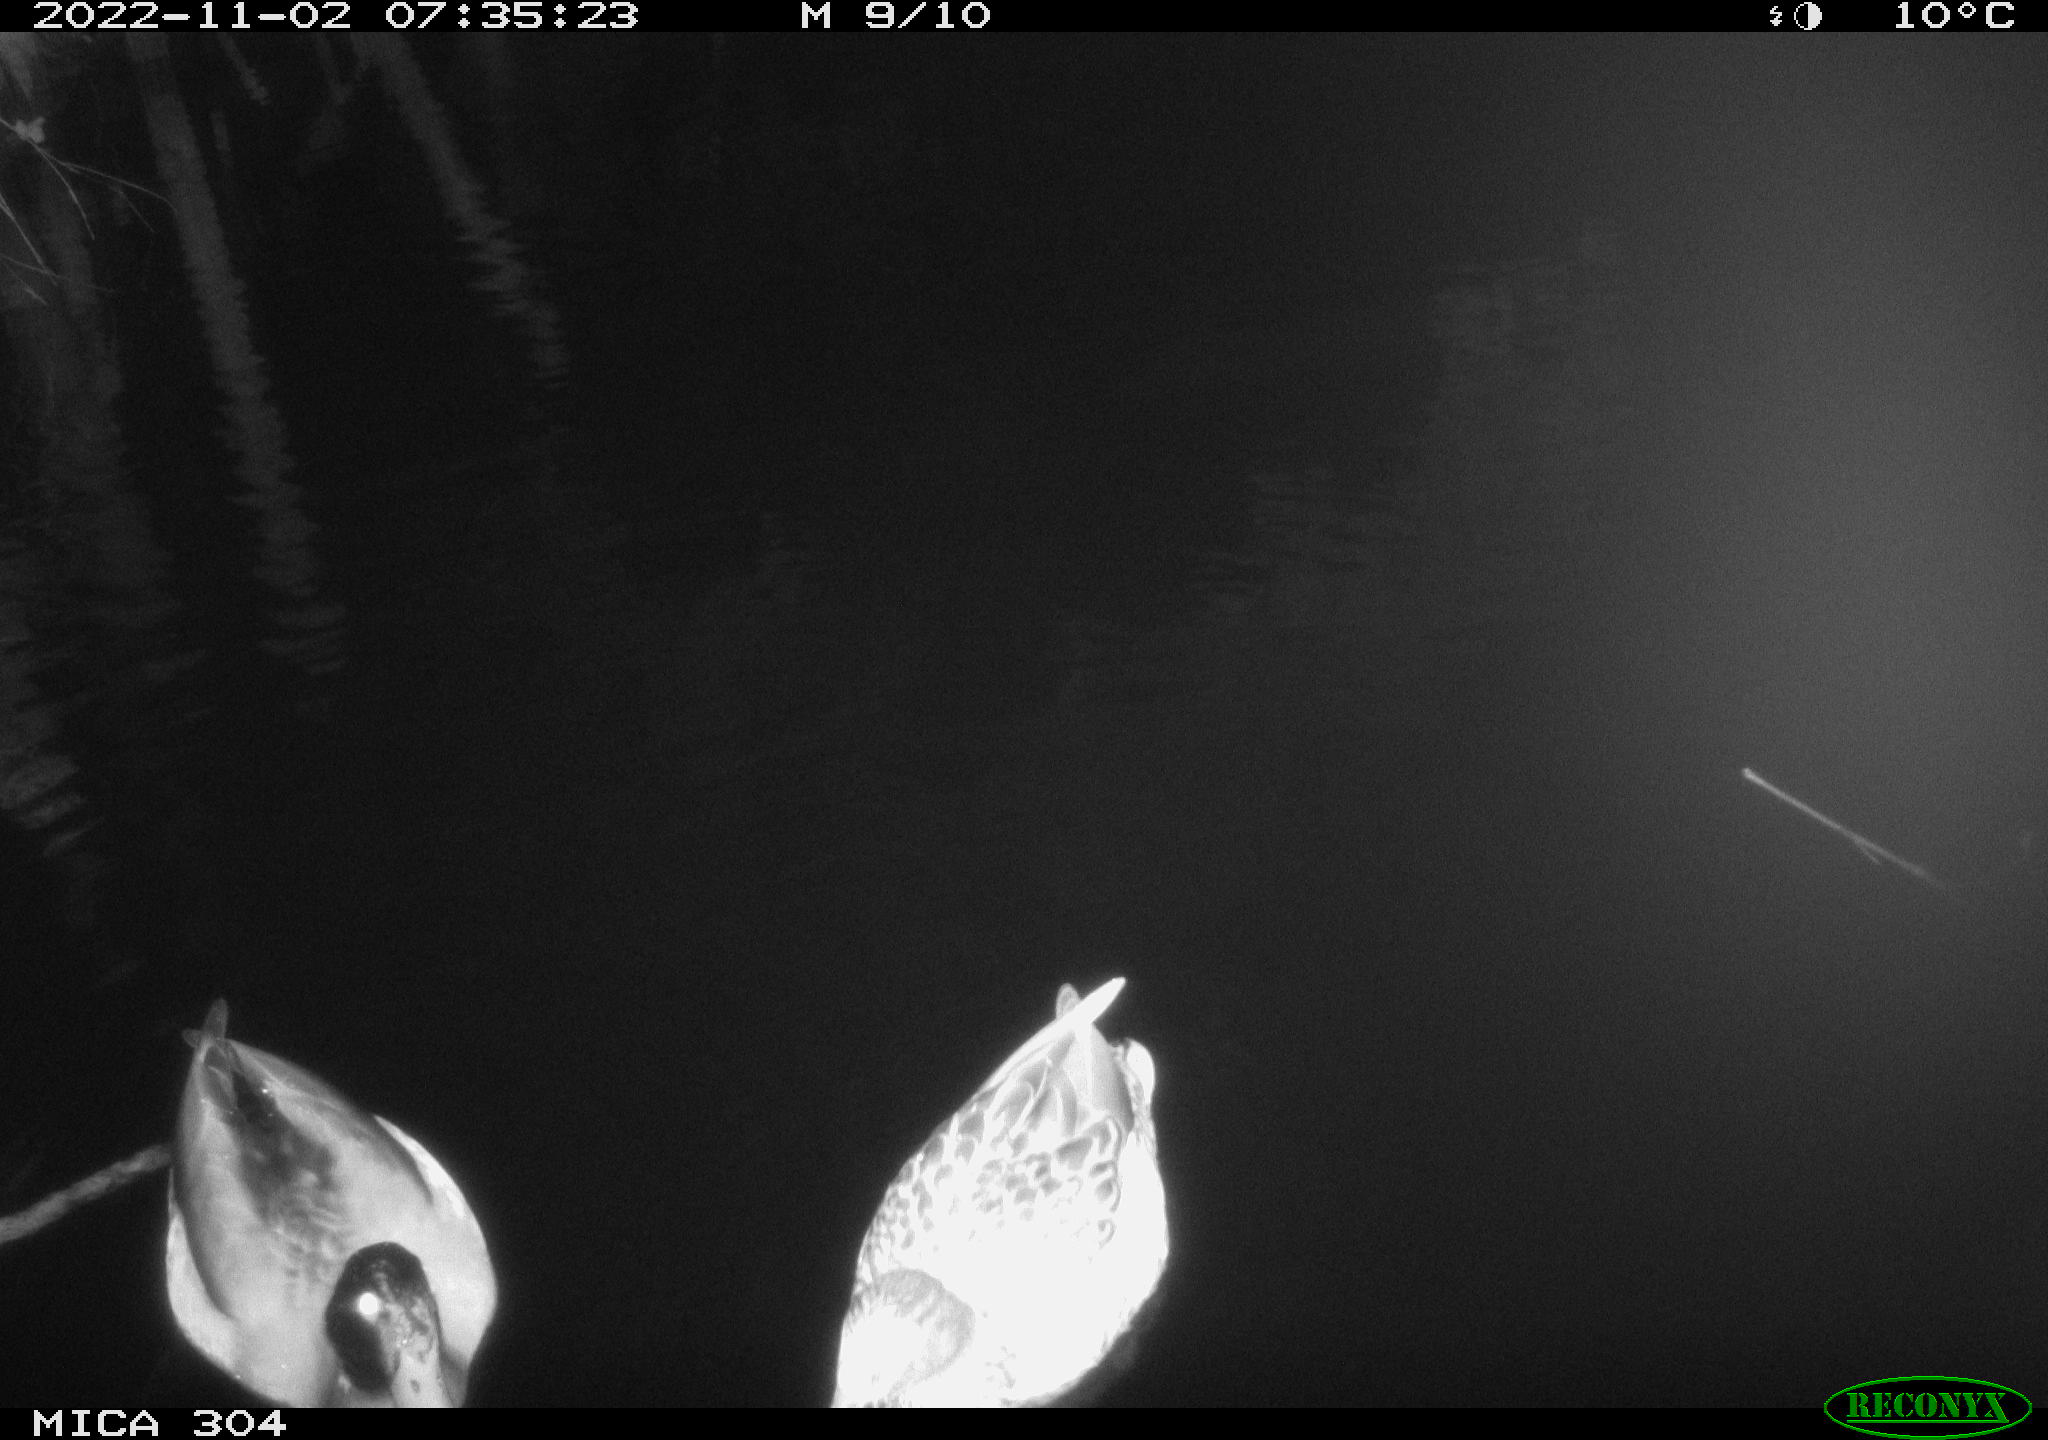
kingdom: Animalia
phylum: Chordata
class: Aves
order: Anseriformes
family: Anatidae
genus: Anas
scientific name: Anas
